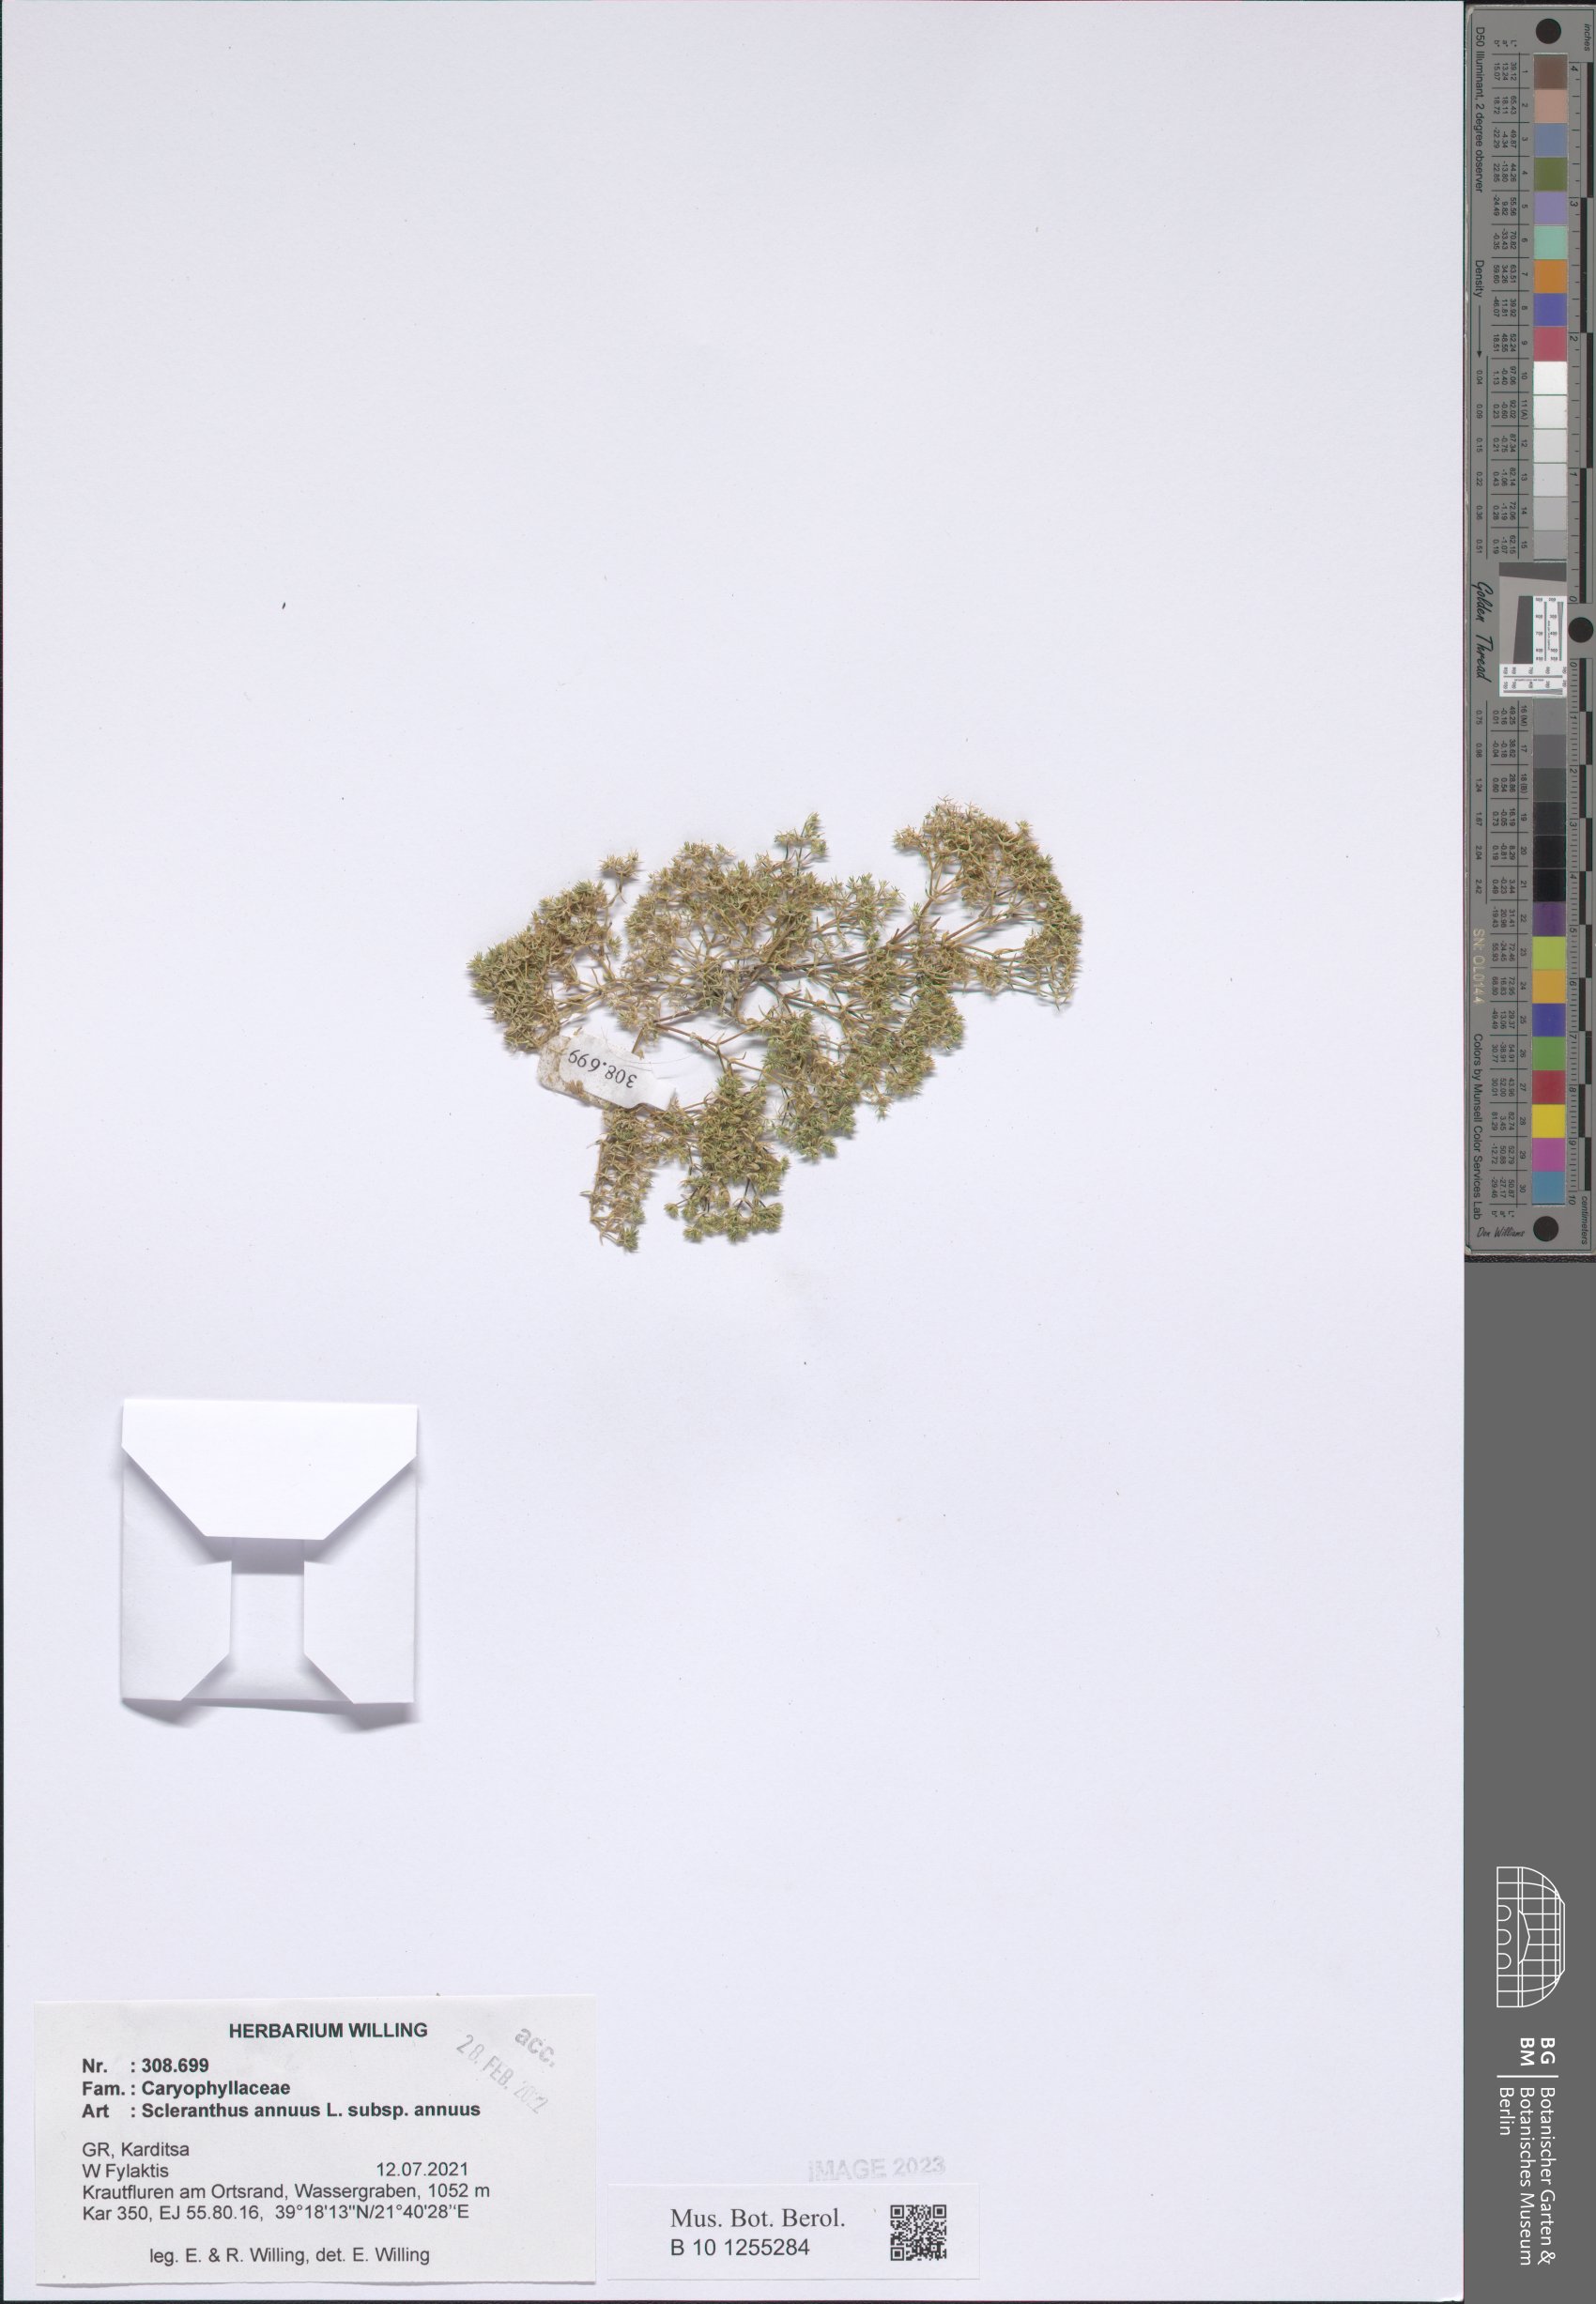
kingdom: Plantae
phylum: Tracheophyta
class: Magnoliopsida
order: Caryophyllales
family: Caryophyllaceae
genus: Scleranthus
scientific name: Scleranthus annuus
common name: Annual knawel
